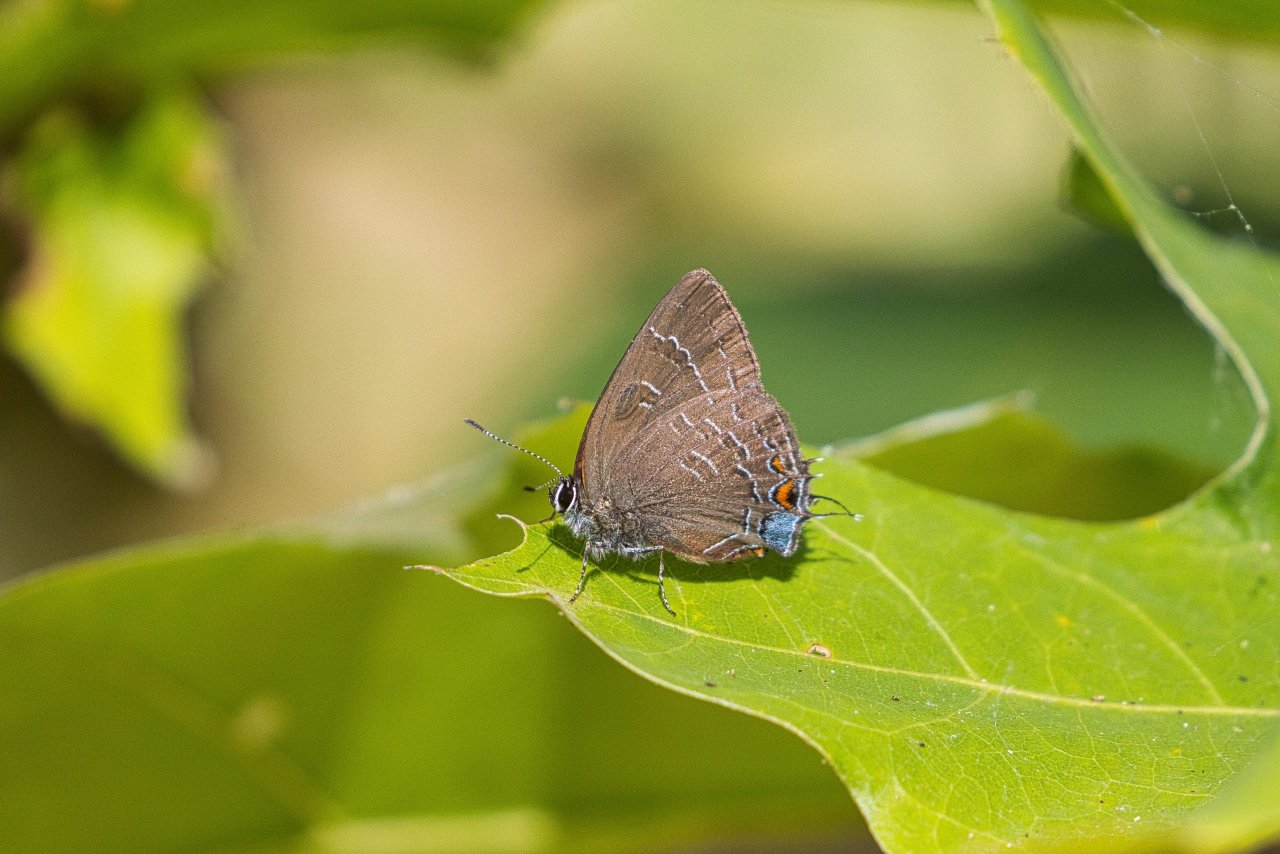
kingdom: Animalia
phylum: Arthropoda
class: Insecta
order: Lepidoptera
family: Lycaenidae
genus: Satyrium
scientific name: Satyrium calanus
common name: Banded Hairstreak
